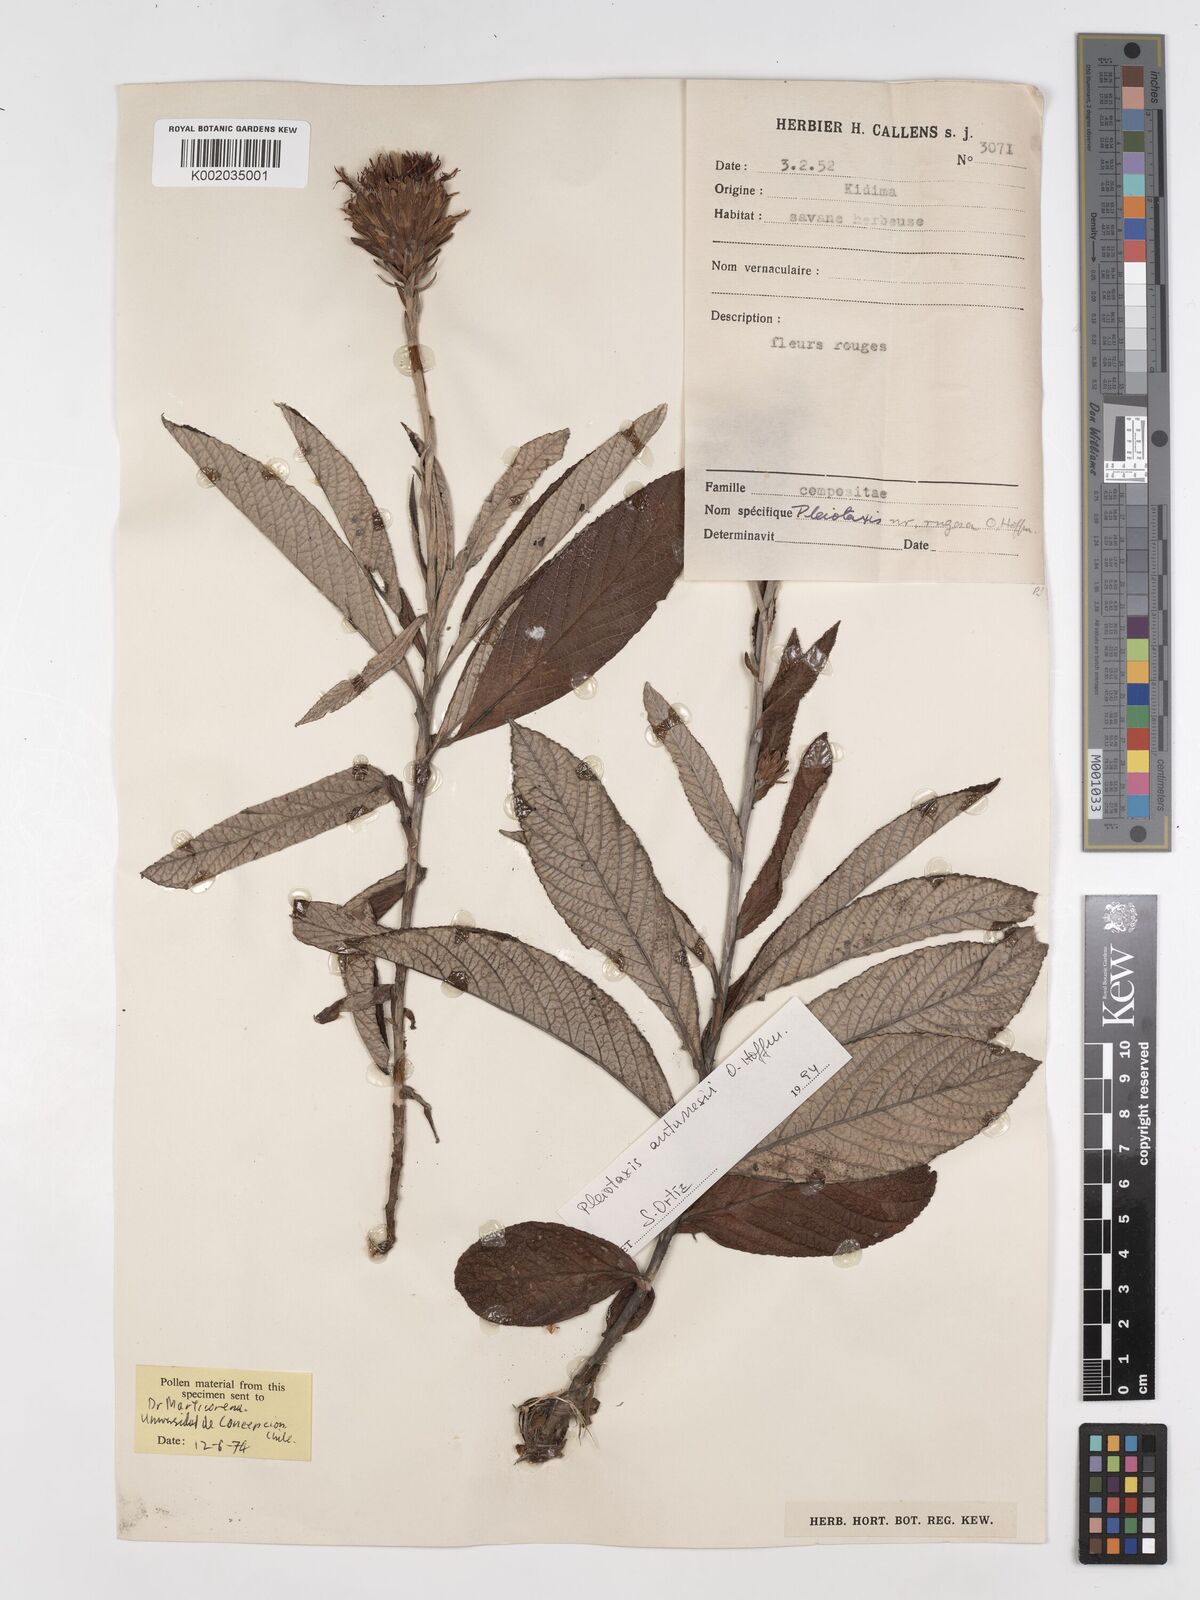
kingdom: Plantae
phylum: Tracheophyta
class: Magnoliopsida
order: Asterales
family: Asteraceae
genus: Pleiotaxis
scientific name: Pleiotaxis antunesii
